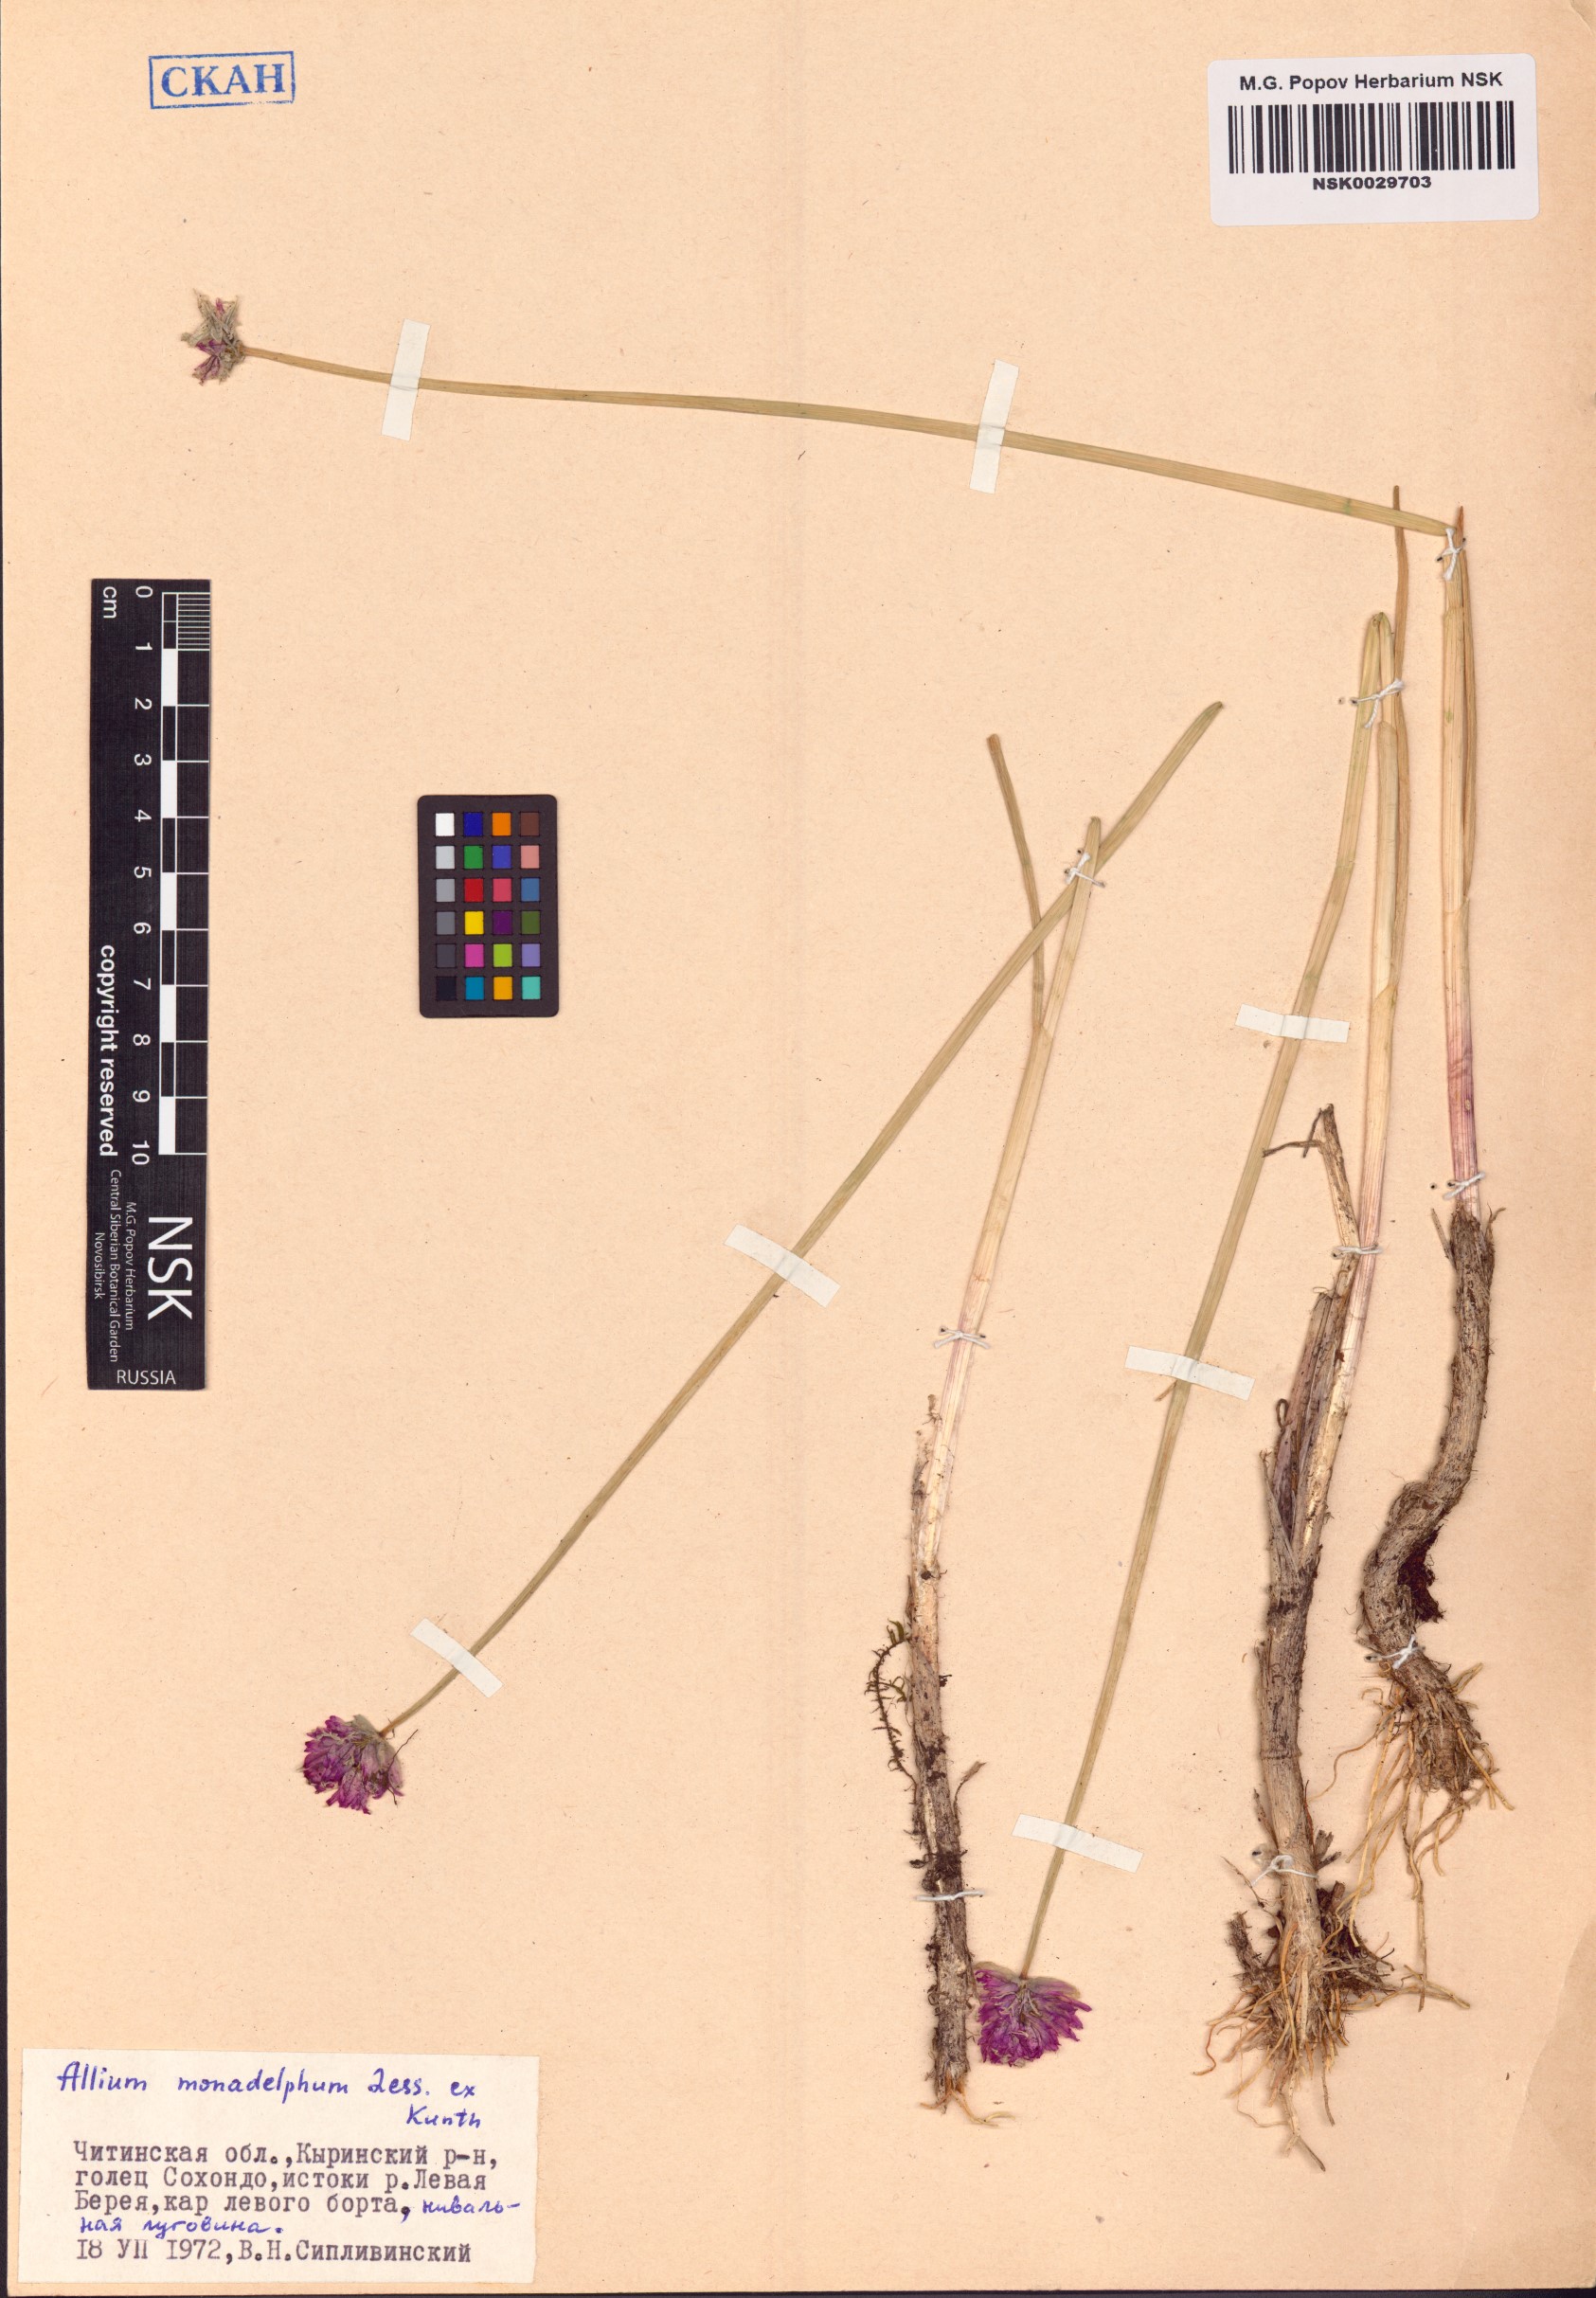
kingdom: Plantae
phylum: Tracheophyta
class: Liliopsida
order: Asparagales
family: Amaryllidaceae
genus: Allium
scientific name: Allium atrosanguineum
